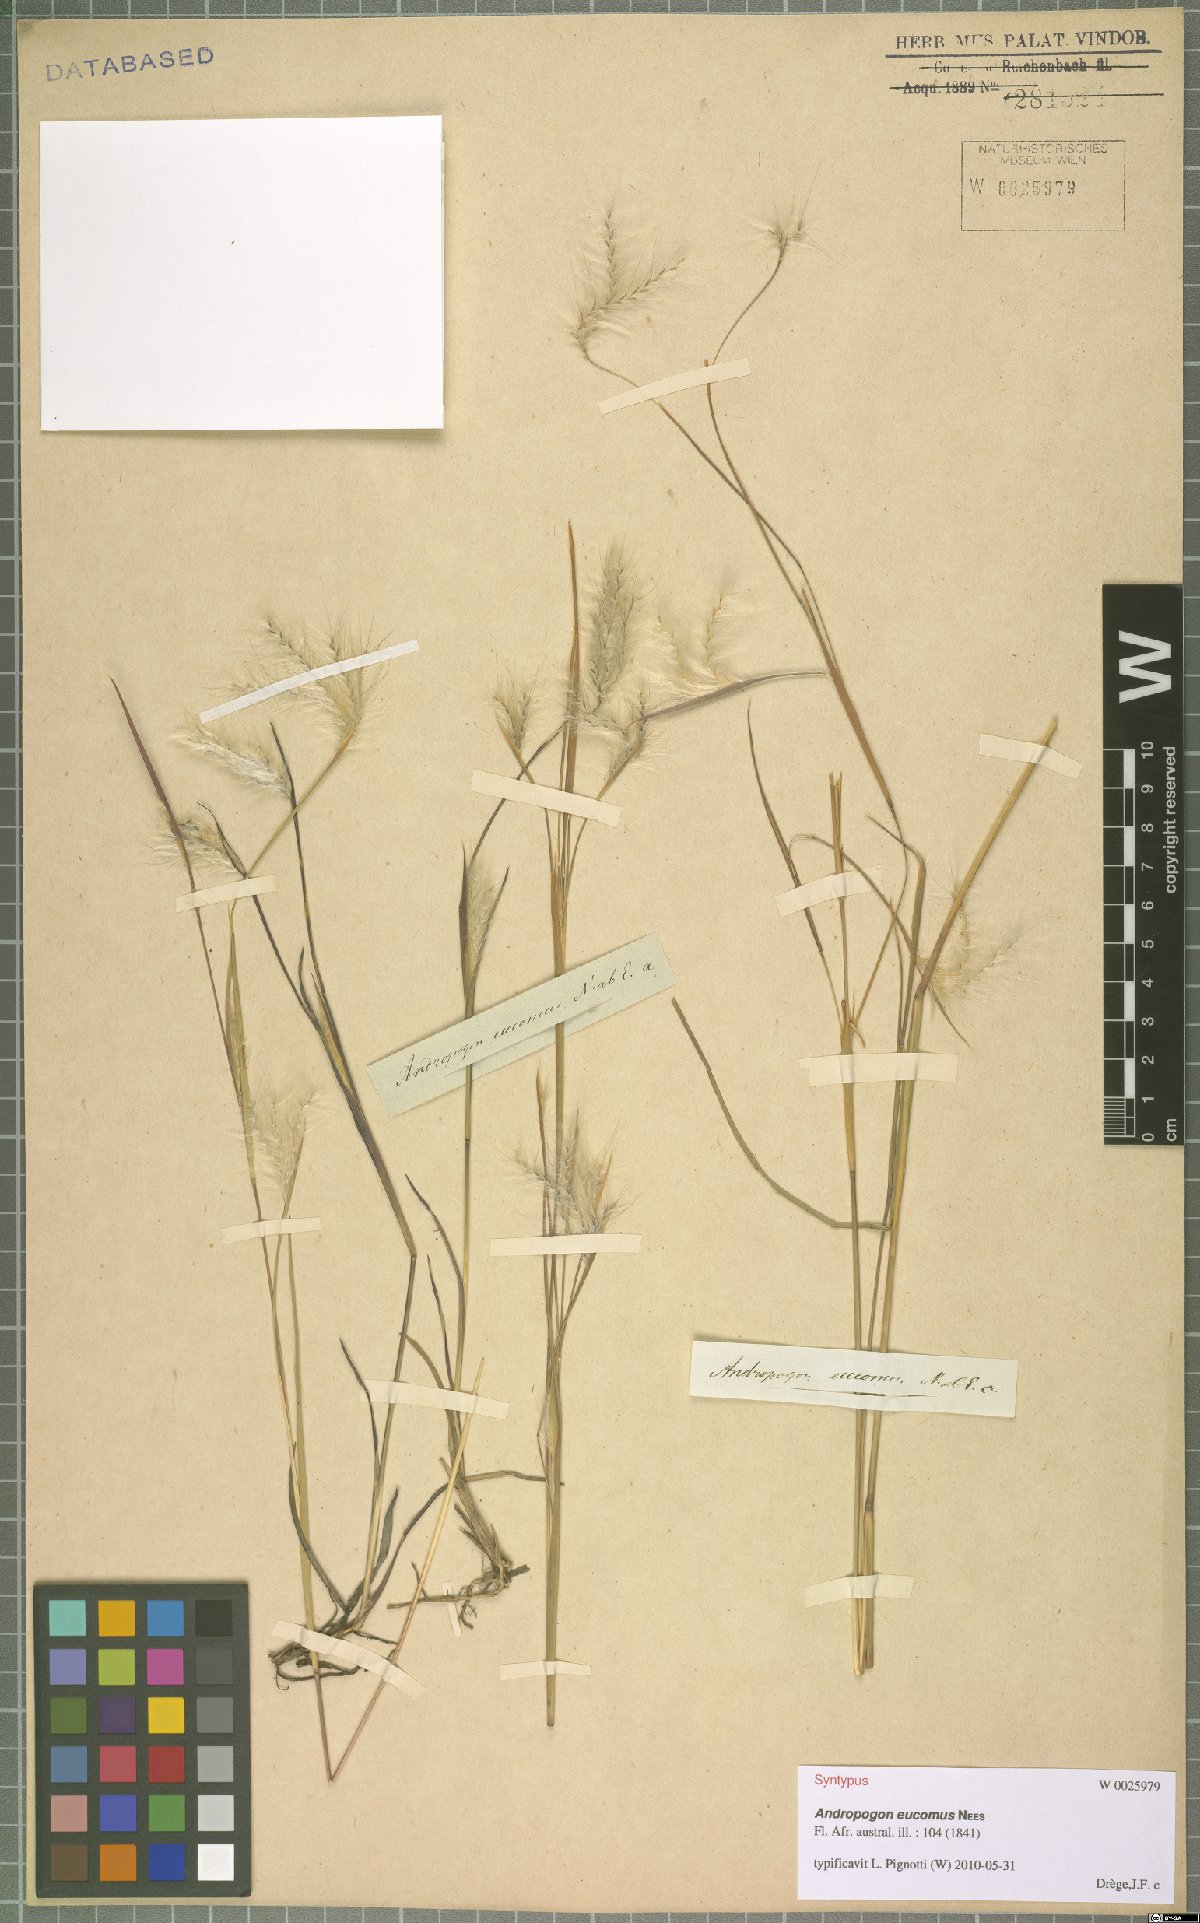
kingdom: Plantae
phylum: Tracheophyta
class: Liliopsida
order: Poales
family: Poaceae
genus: Andropogon
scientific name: Andropogon eucomus
